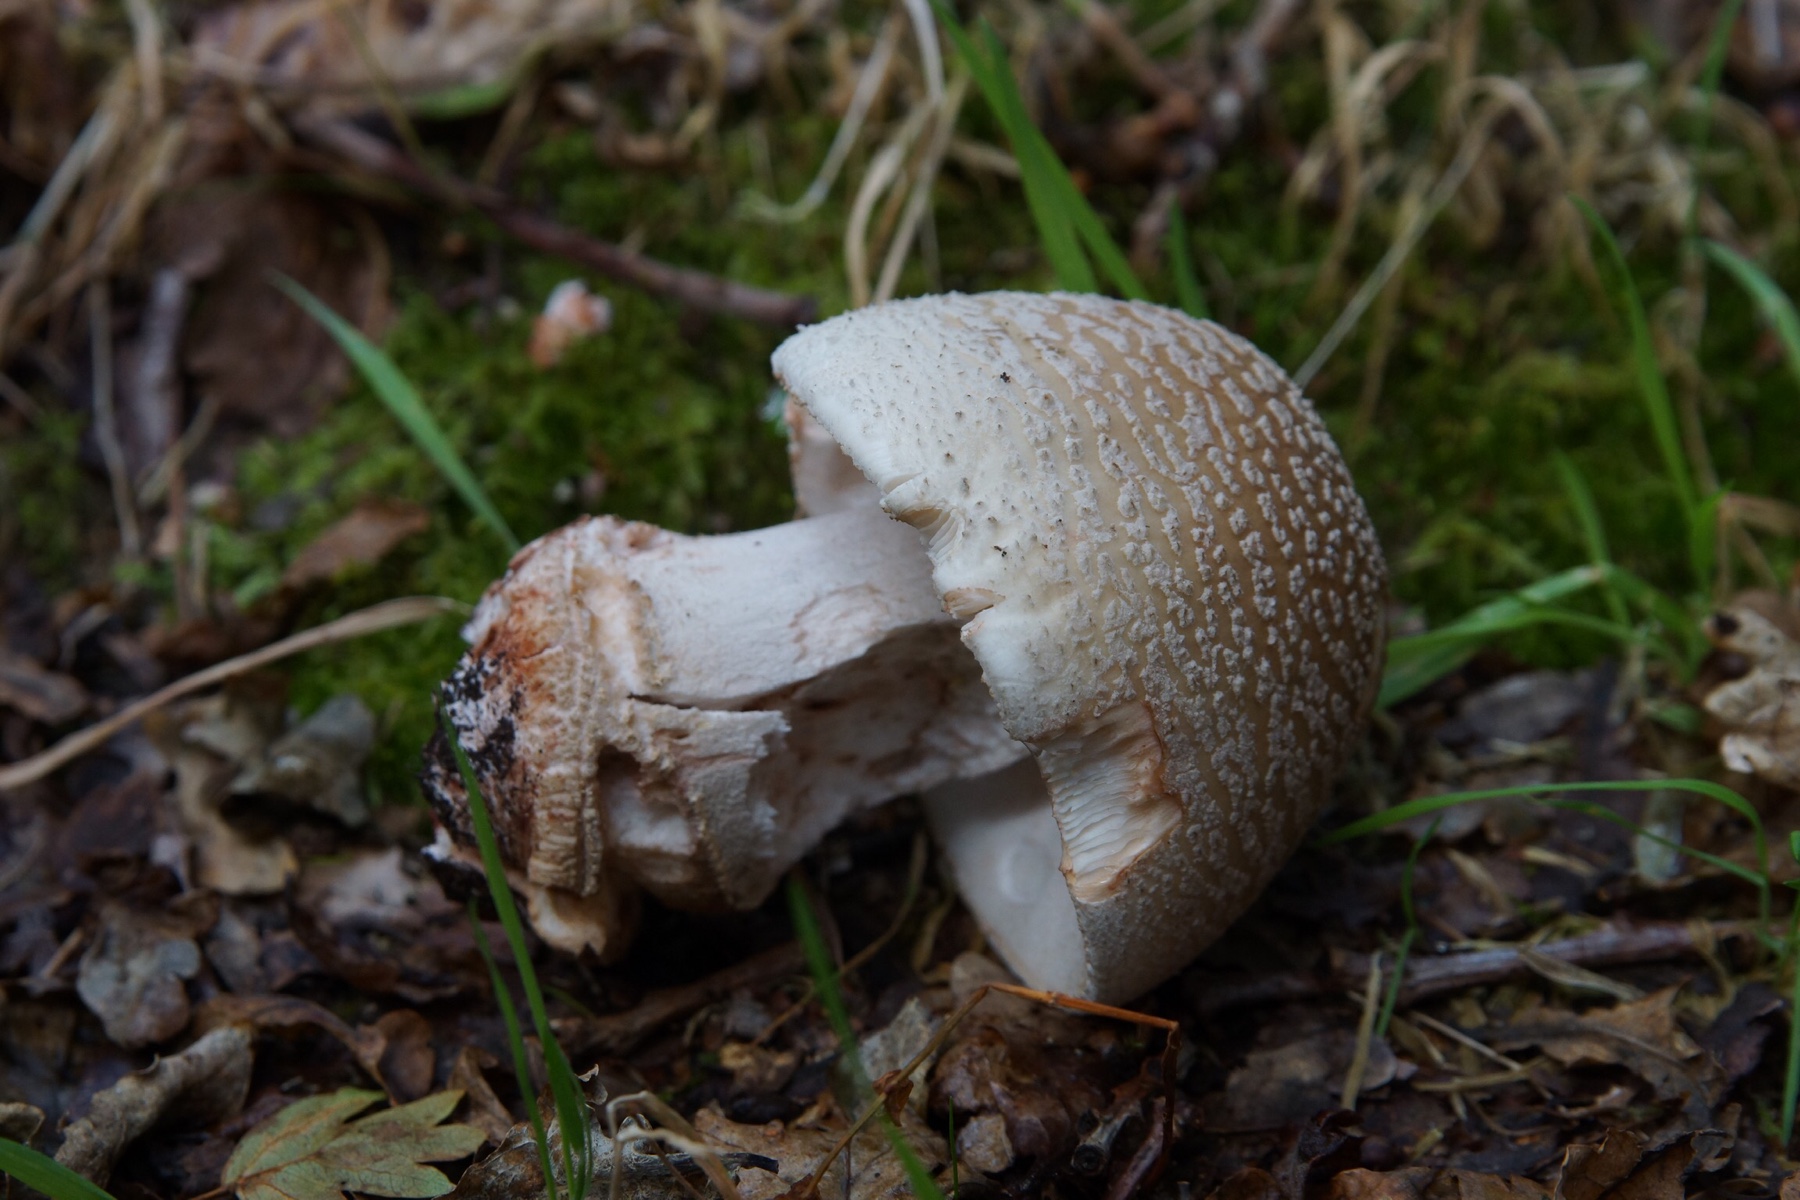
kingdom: Fungi
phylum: Basidiomycota
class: Agaricomycetes
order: Agaricales
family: Amanitaceae
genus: Amanita
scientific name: Amanita rubescens
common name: rødmende fluesvamp
